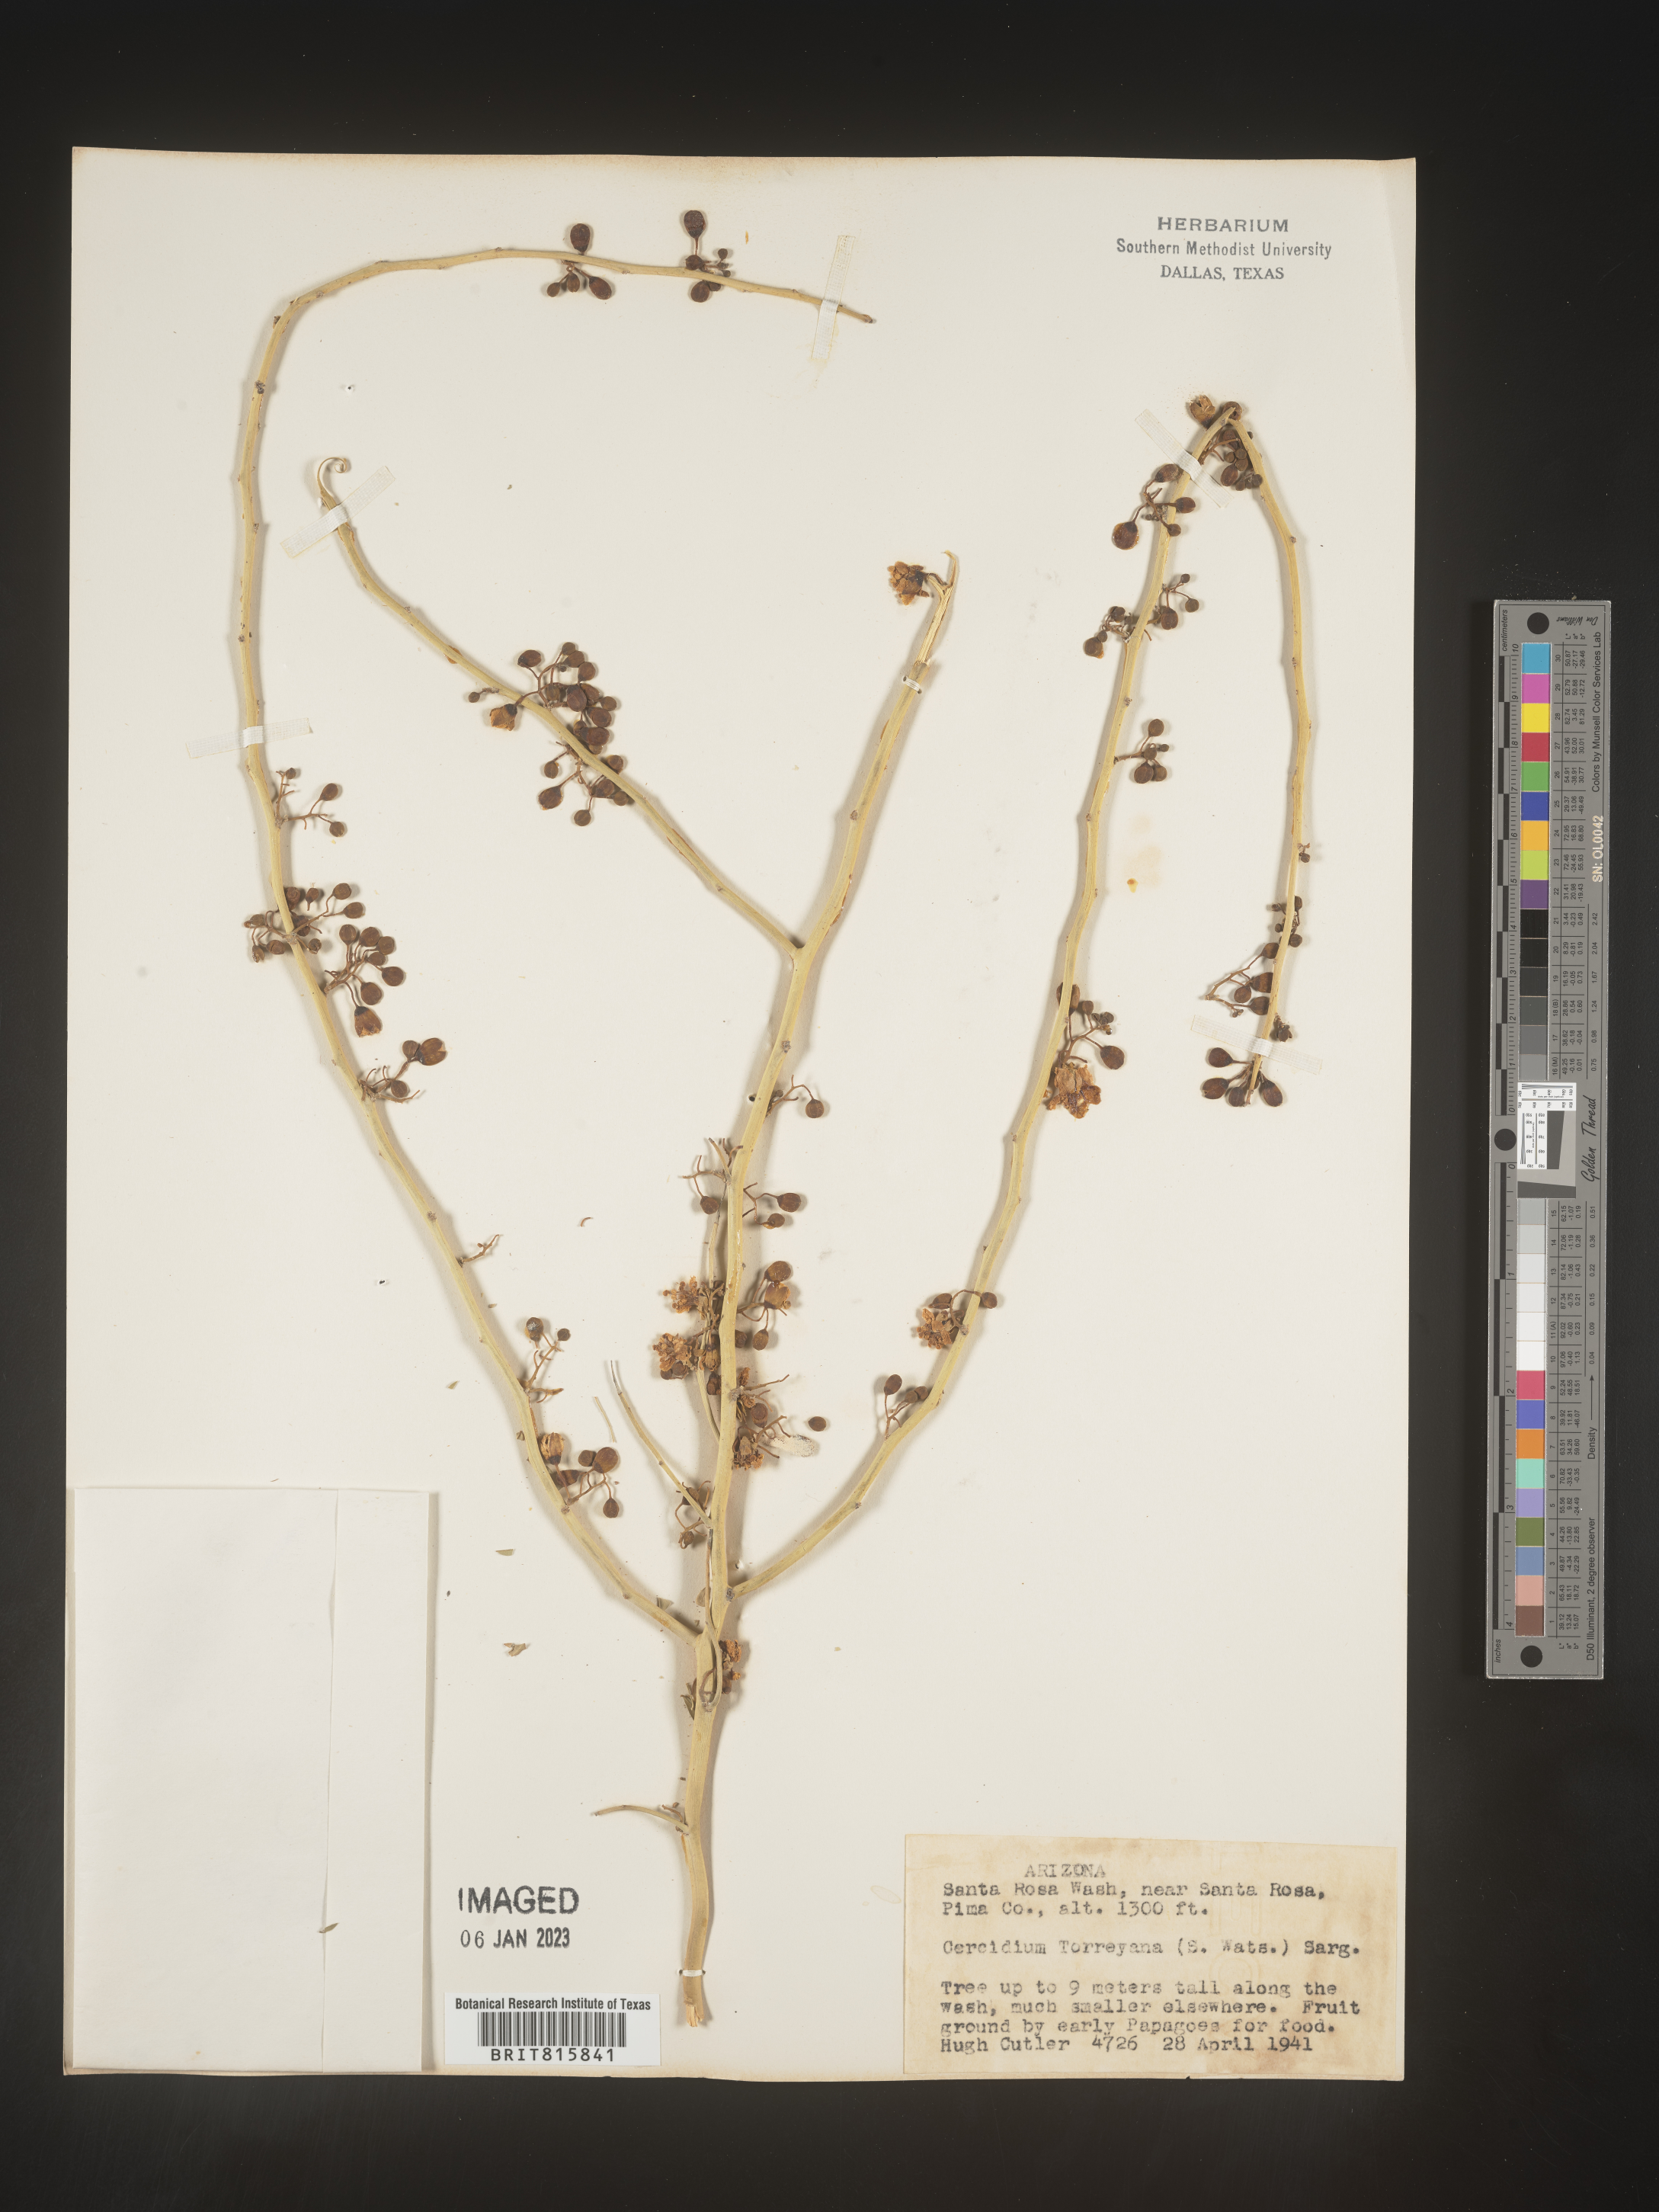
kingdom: Plantae
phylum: Chlorophyta
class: Chlorophyceae
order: Volvocales
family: Chlamydomonadaceae
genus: Cercidium
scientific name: Cercidium
